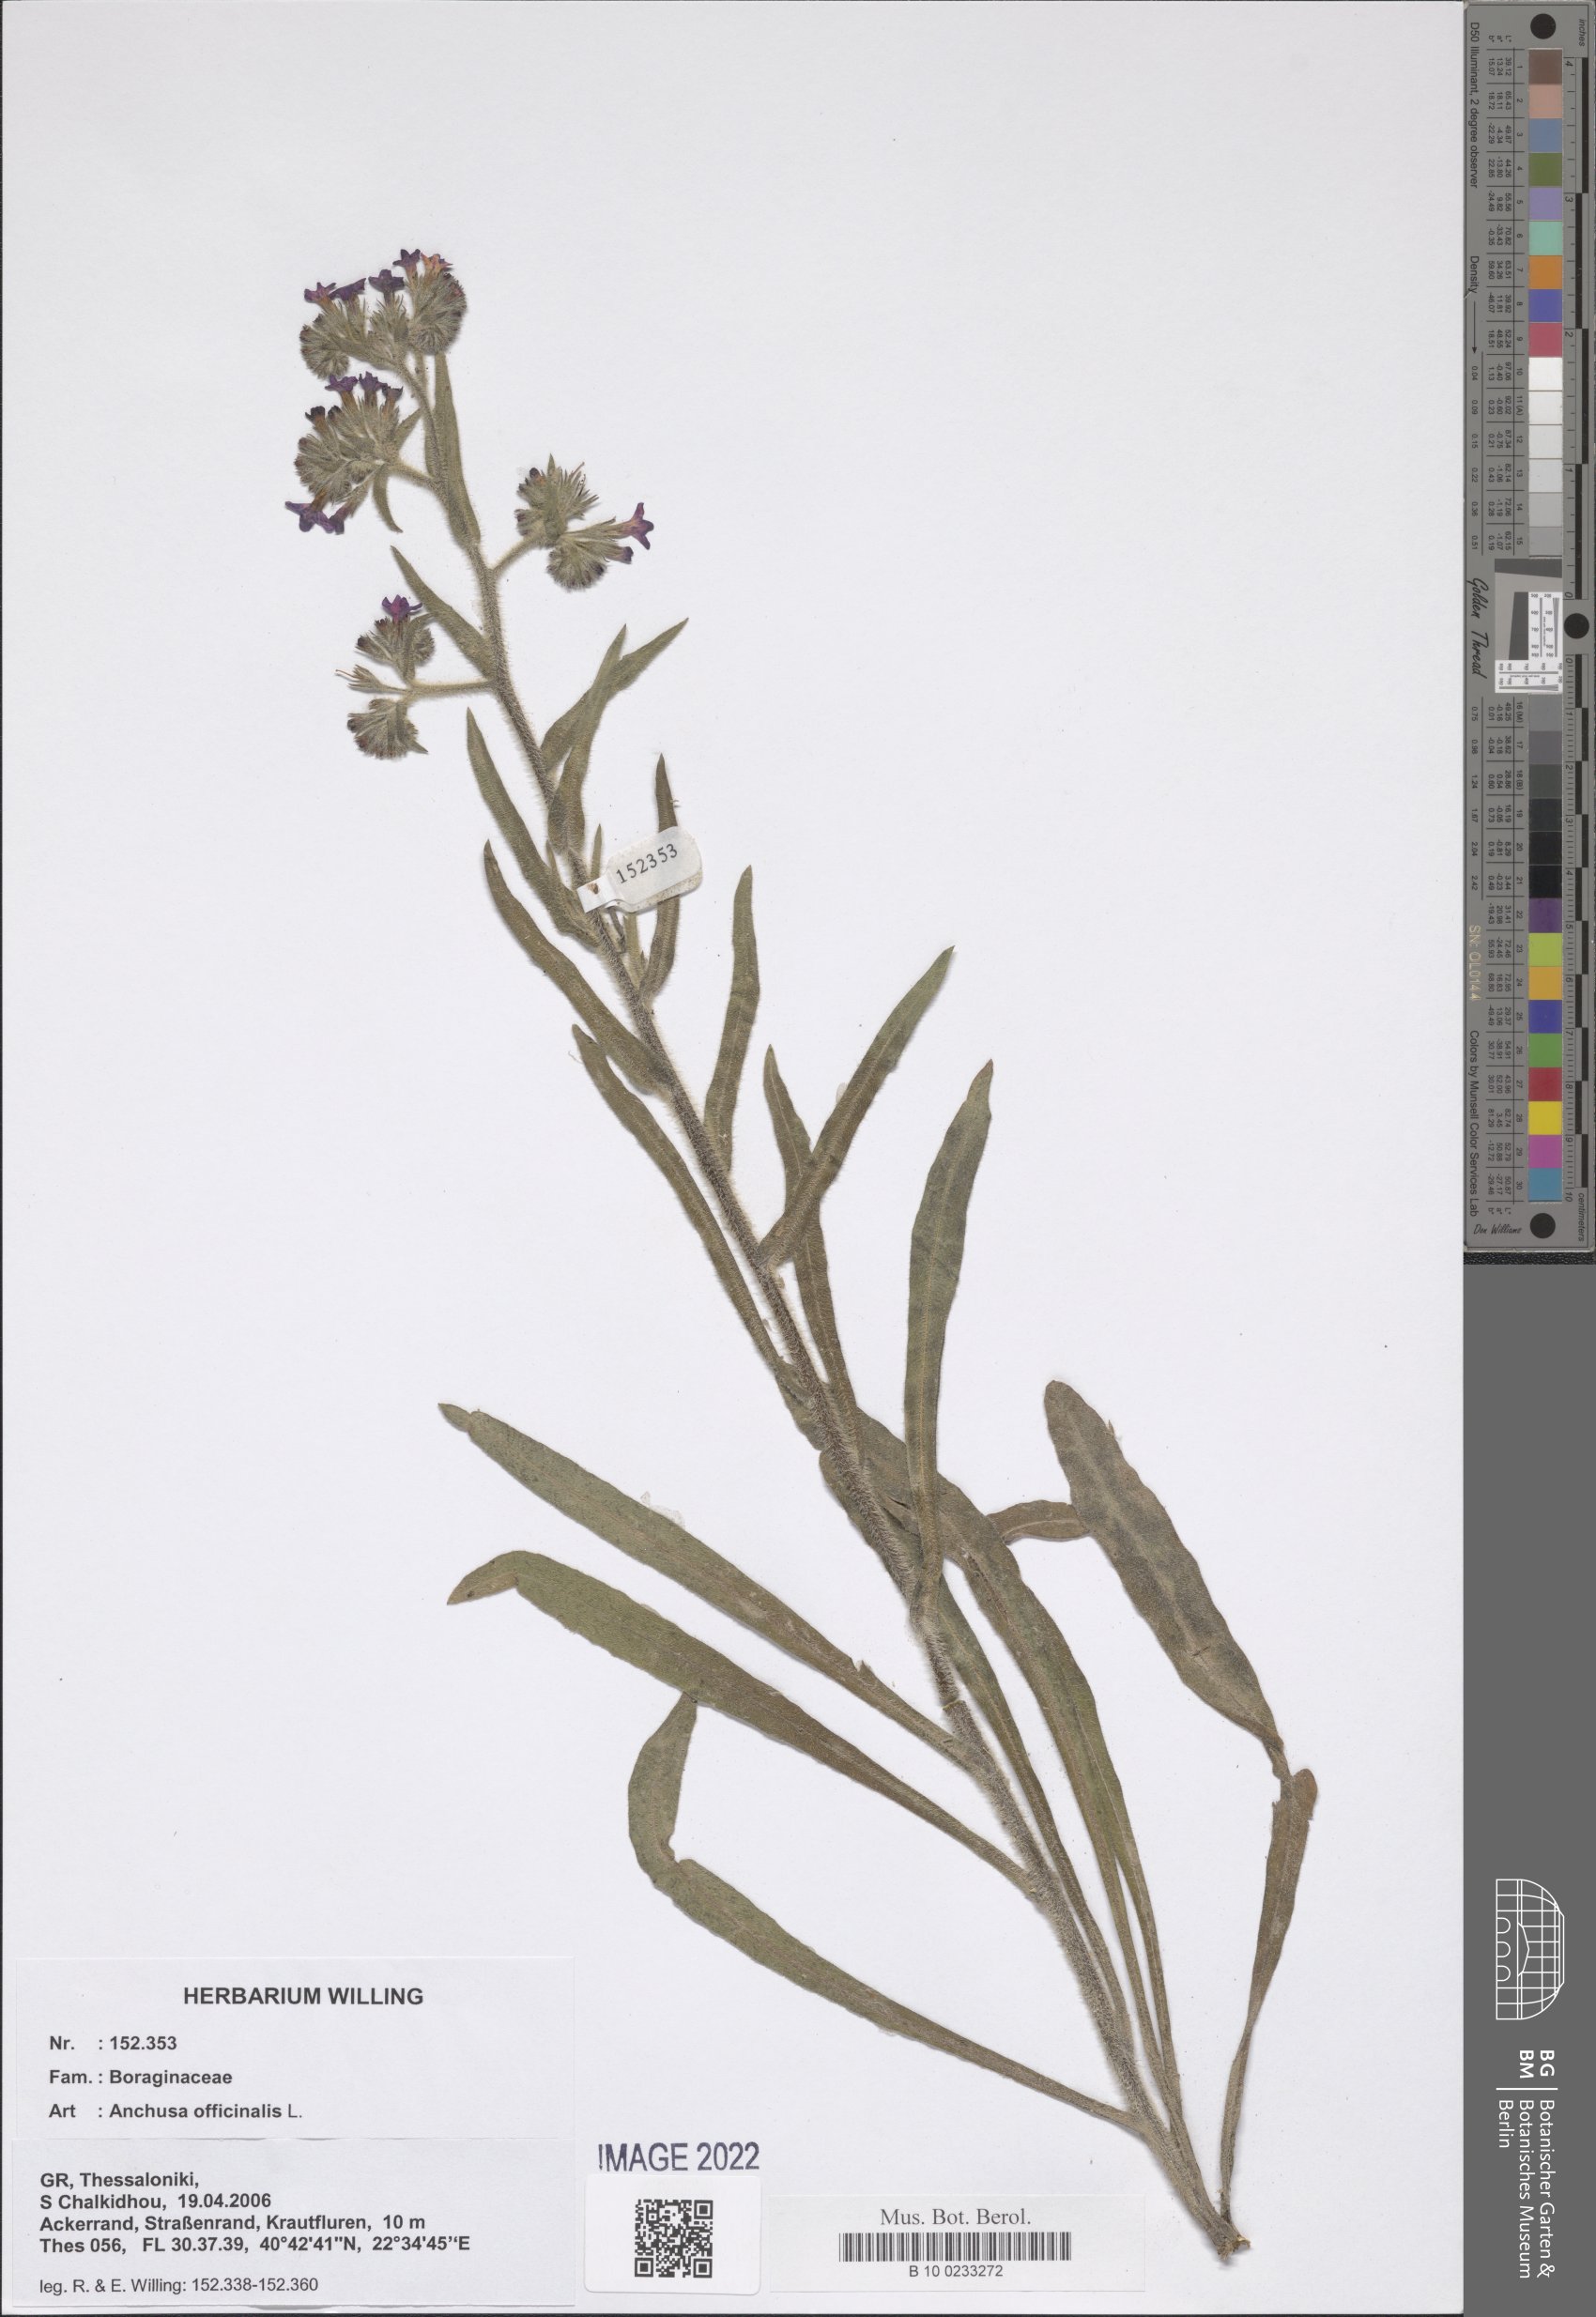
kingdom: Plantae
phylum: Tracheophyta
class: Magnoliopsida
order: Boraginales
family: Boraginaceae
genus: Anchusa
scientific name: Anchusa officinalis
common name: Alkanet
